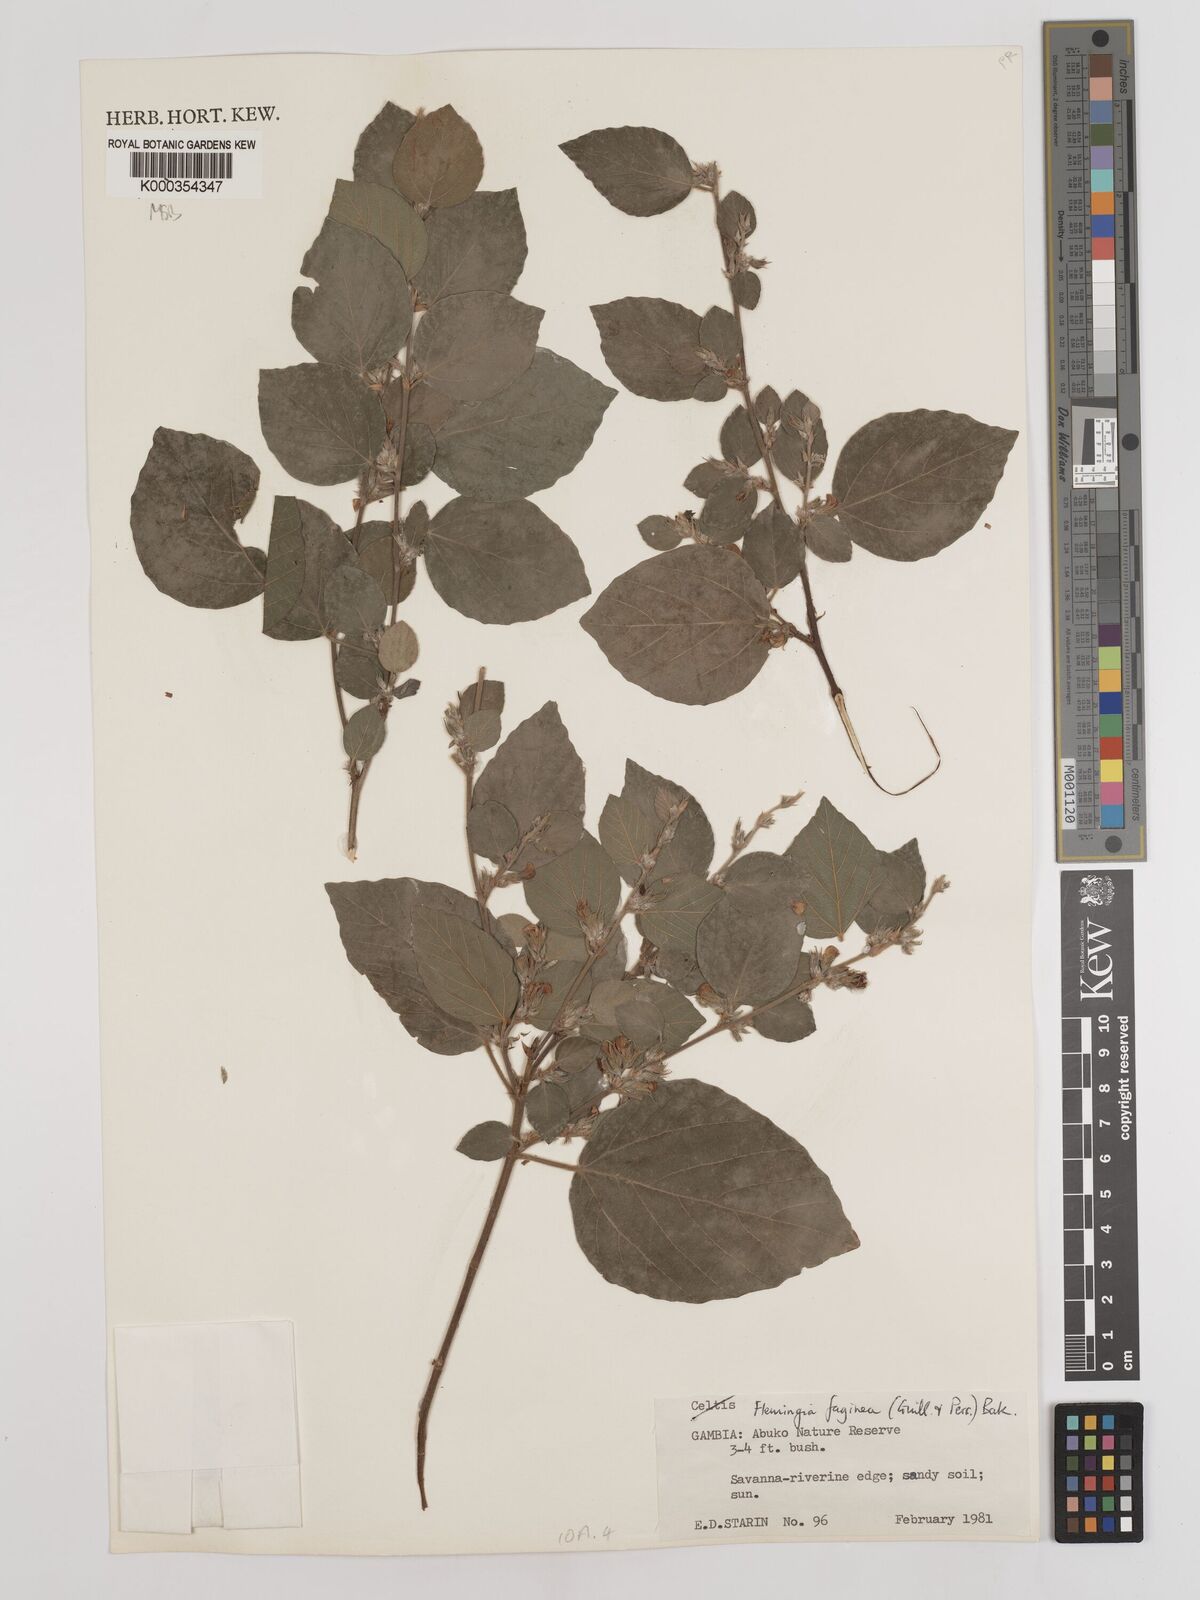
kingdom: Plantae
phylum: Tracheophyta
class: Magnoliopsida
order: Fabales
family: Fabaceae
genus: Flemingia
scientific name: Flemingia faginea
